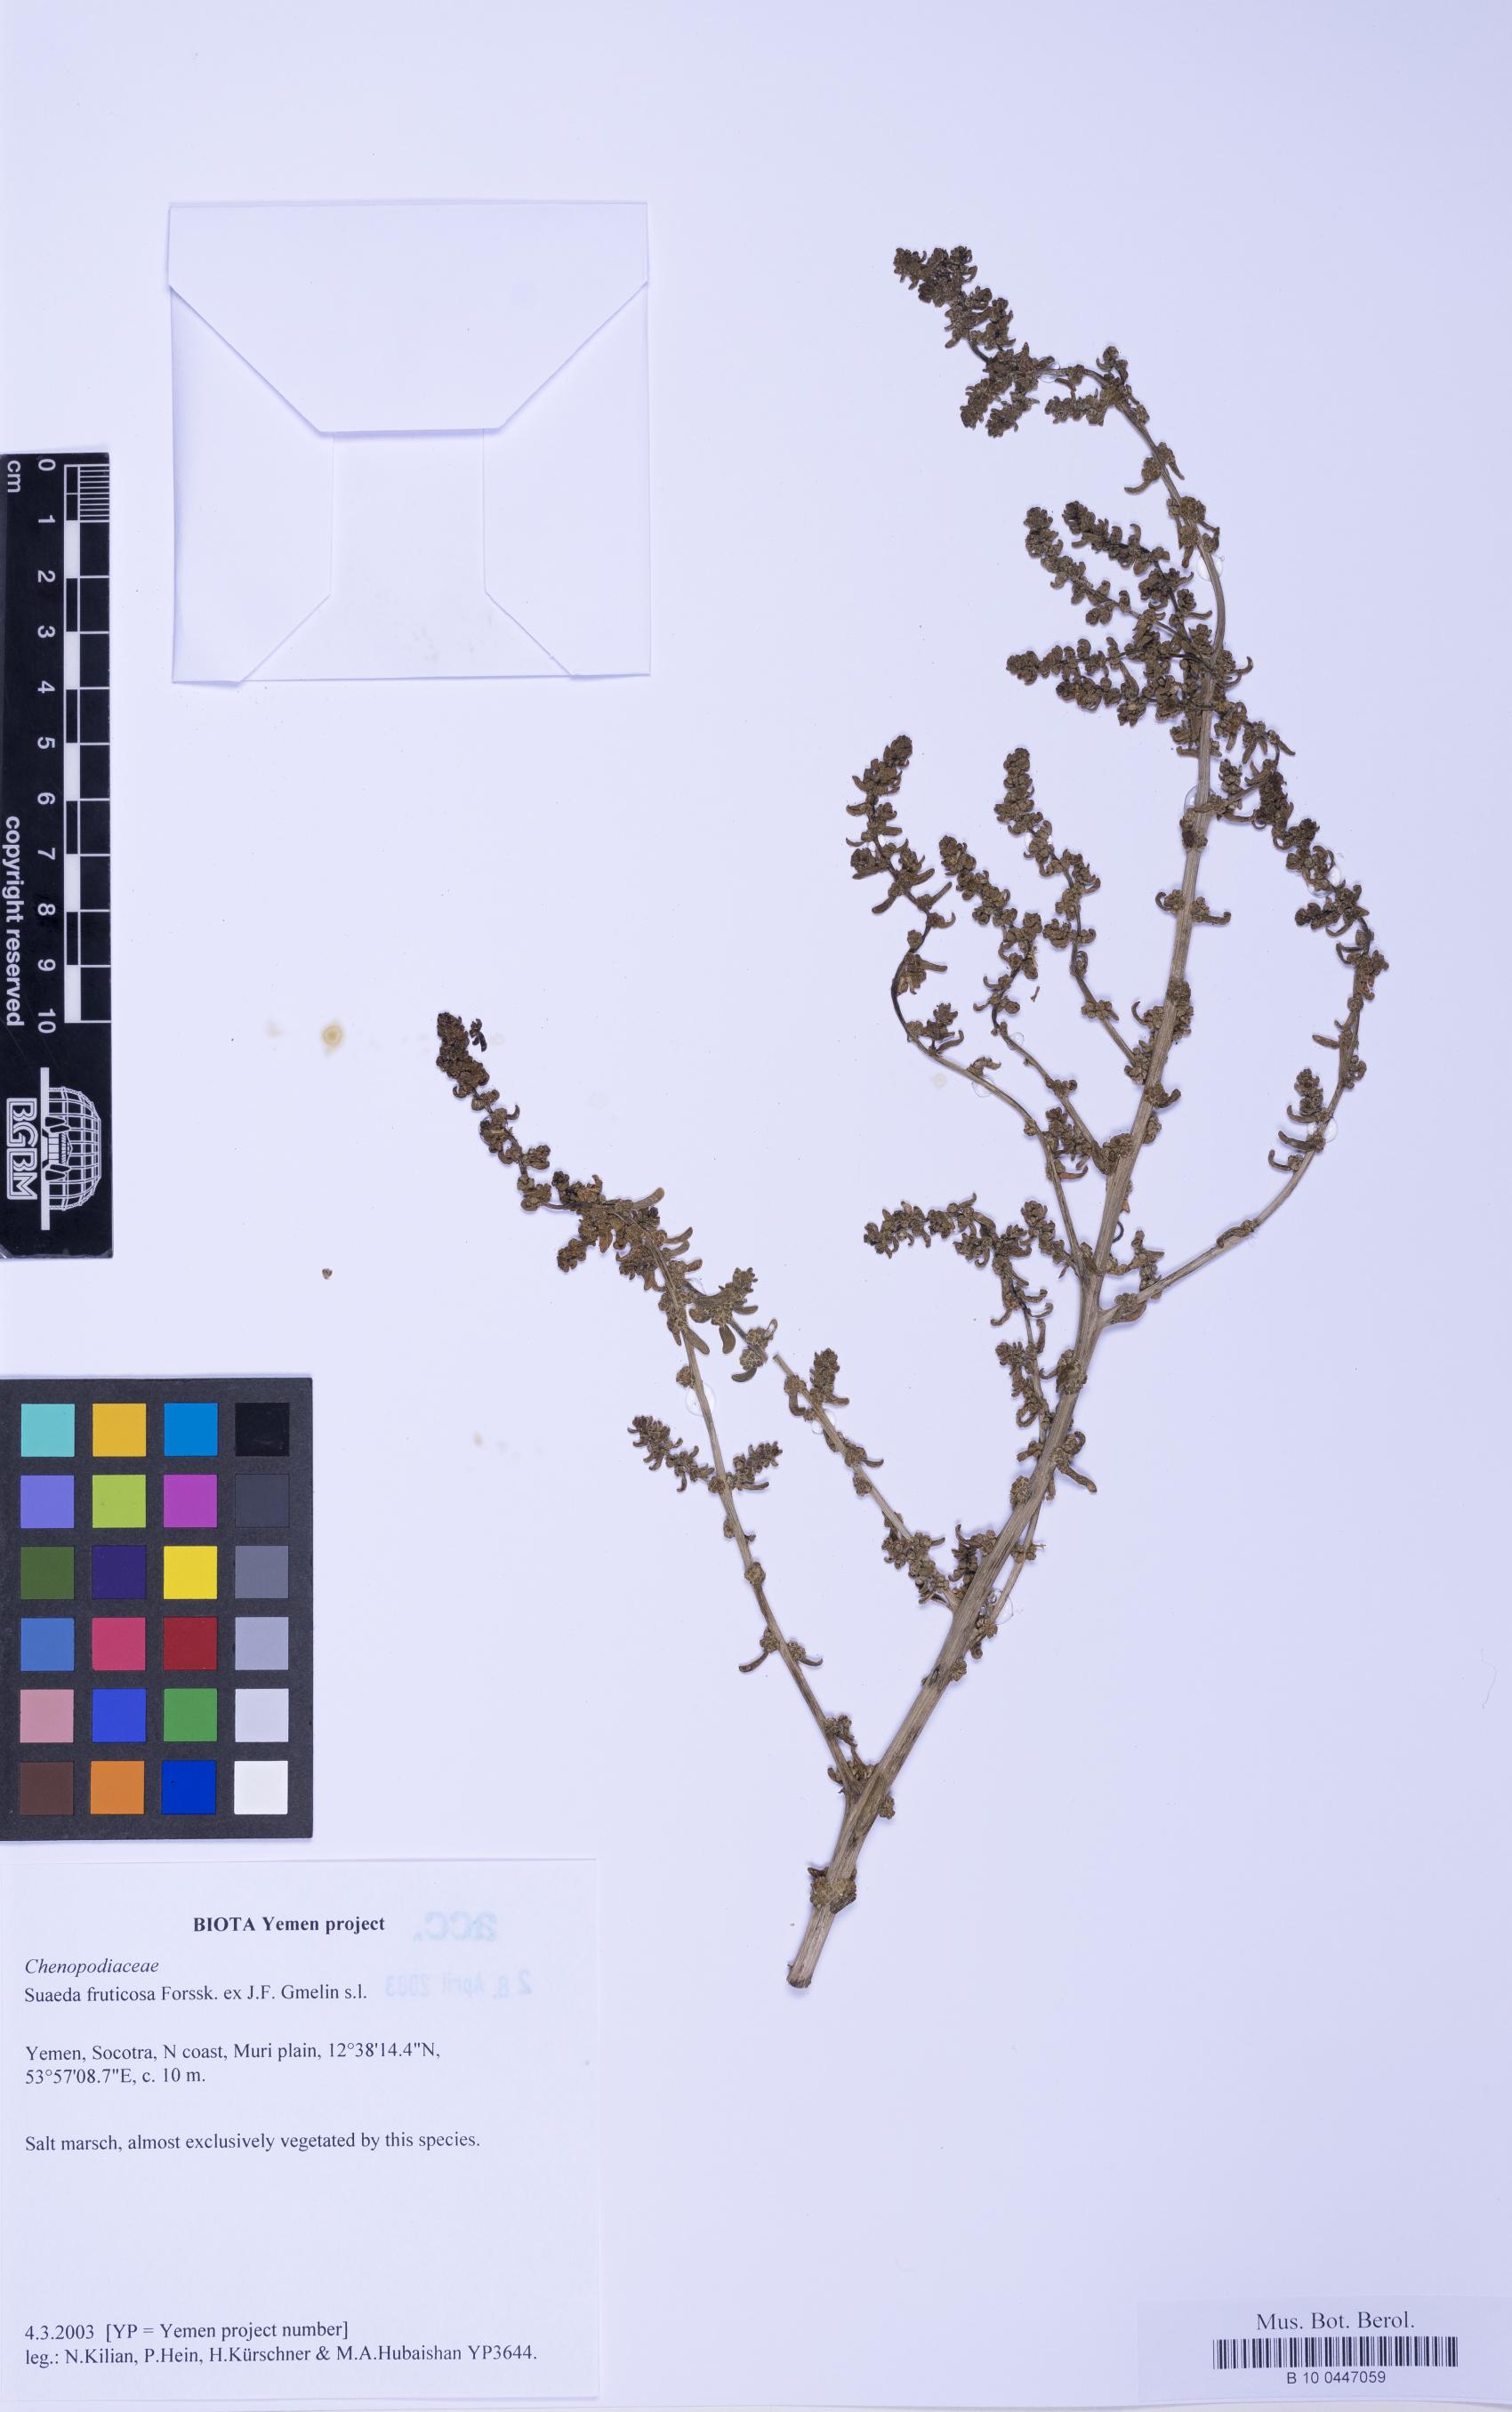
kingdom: Plantae
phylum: Tracheophyta
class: Magnoliopsida
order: Caryophyllales
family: Amaranthaceae
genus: Suaeda
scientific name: Suaeda vermiculata
